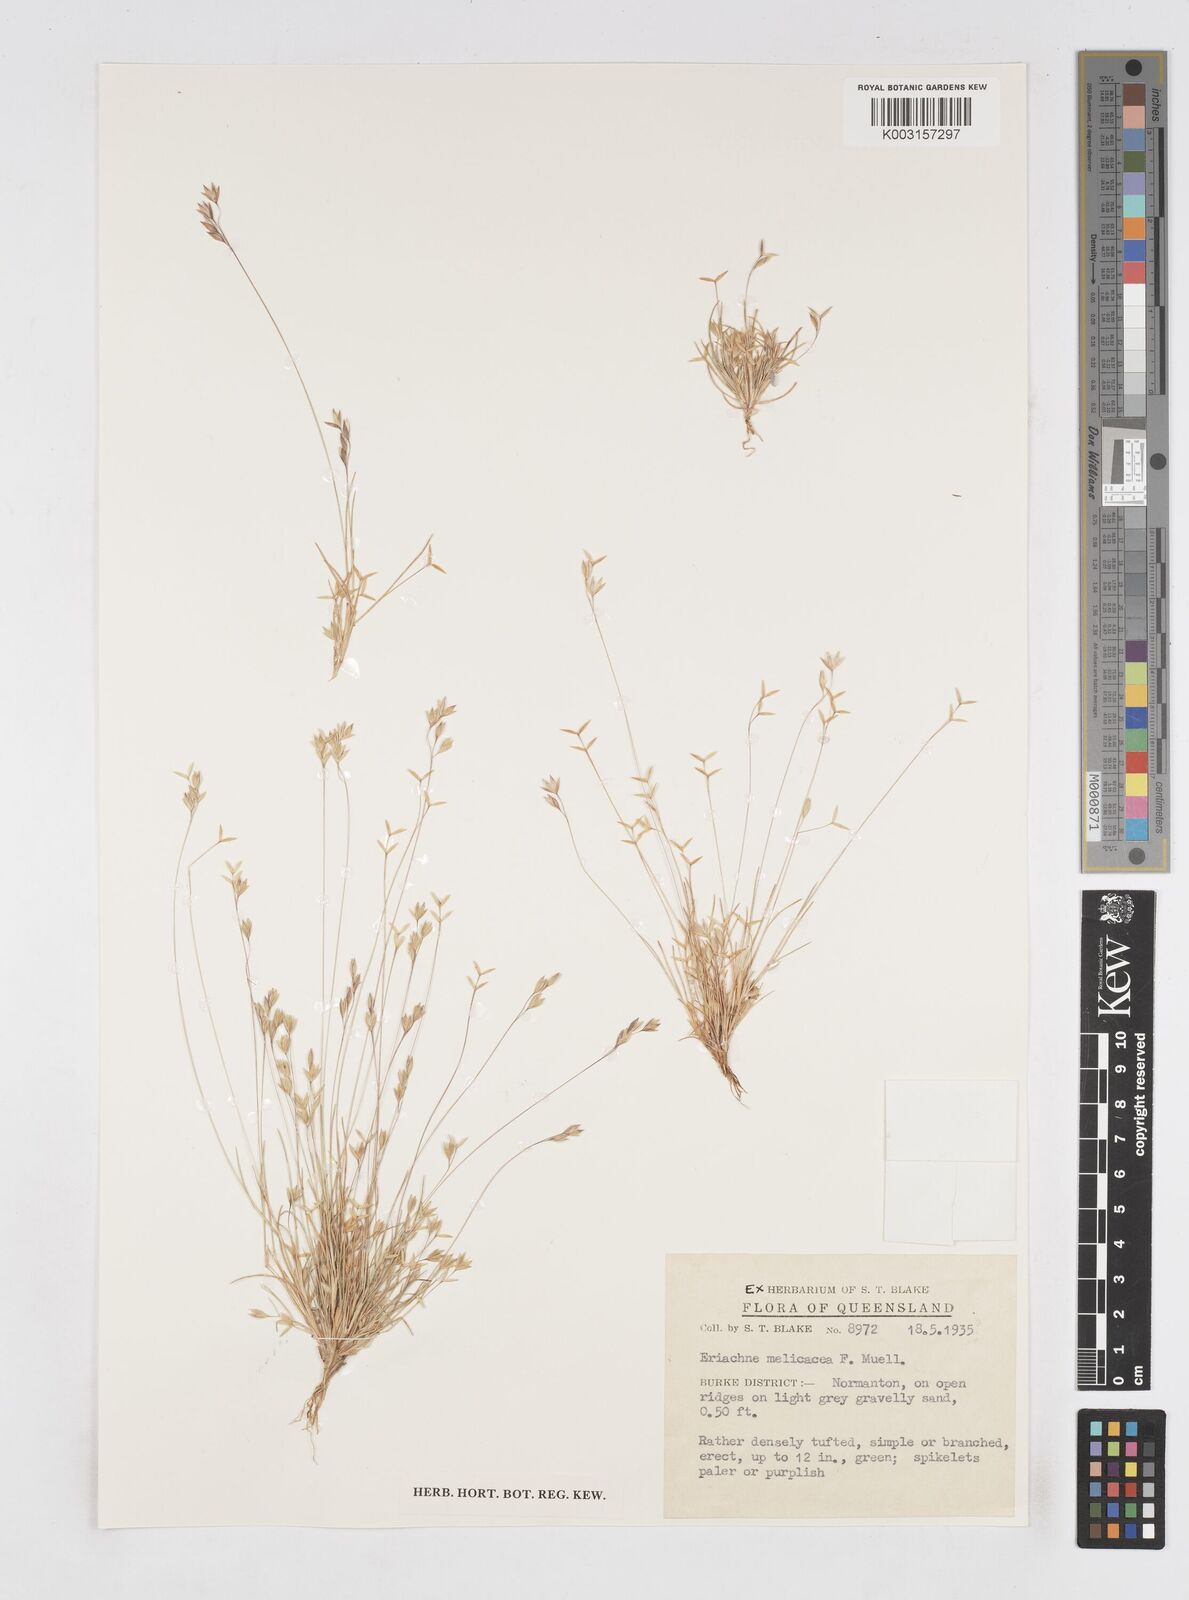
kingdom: Plantae
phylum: Tracheophyta
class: Liliopsida
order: Poales
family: Poaceae
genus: Eriachne
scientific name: Eriachne melicacea
